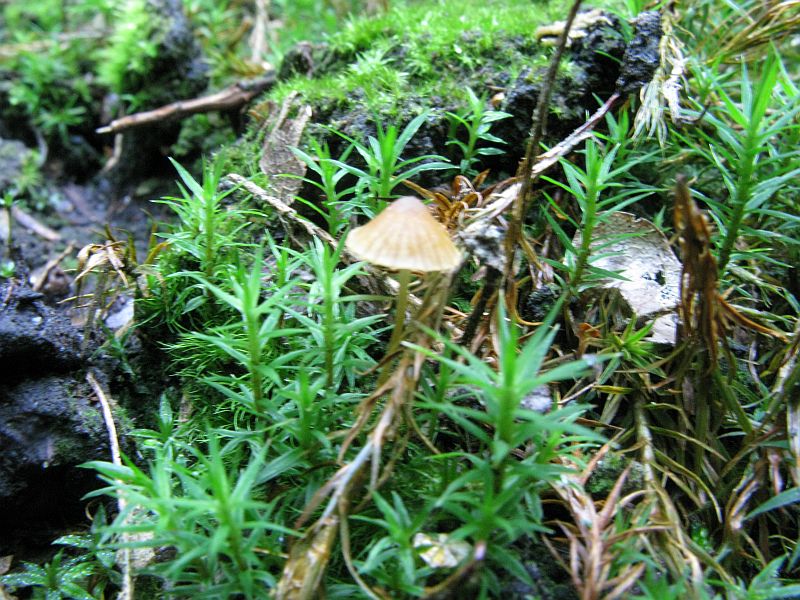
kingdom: Fungi
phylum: Basidiomycota
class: Agaricomycetes
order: Agaricales
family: Hymenogastraceae
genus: Galerina
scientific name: Galerina hypnorum
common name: mos-hjelmhat
